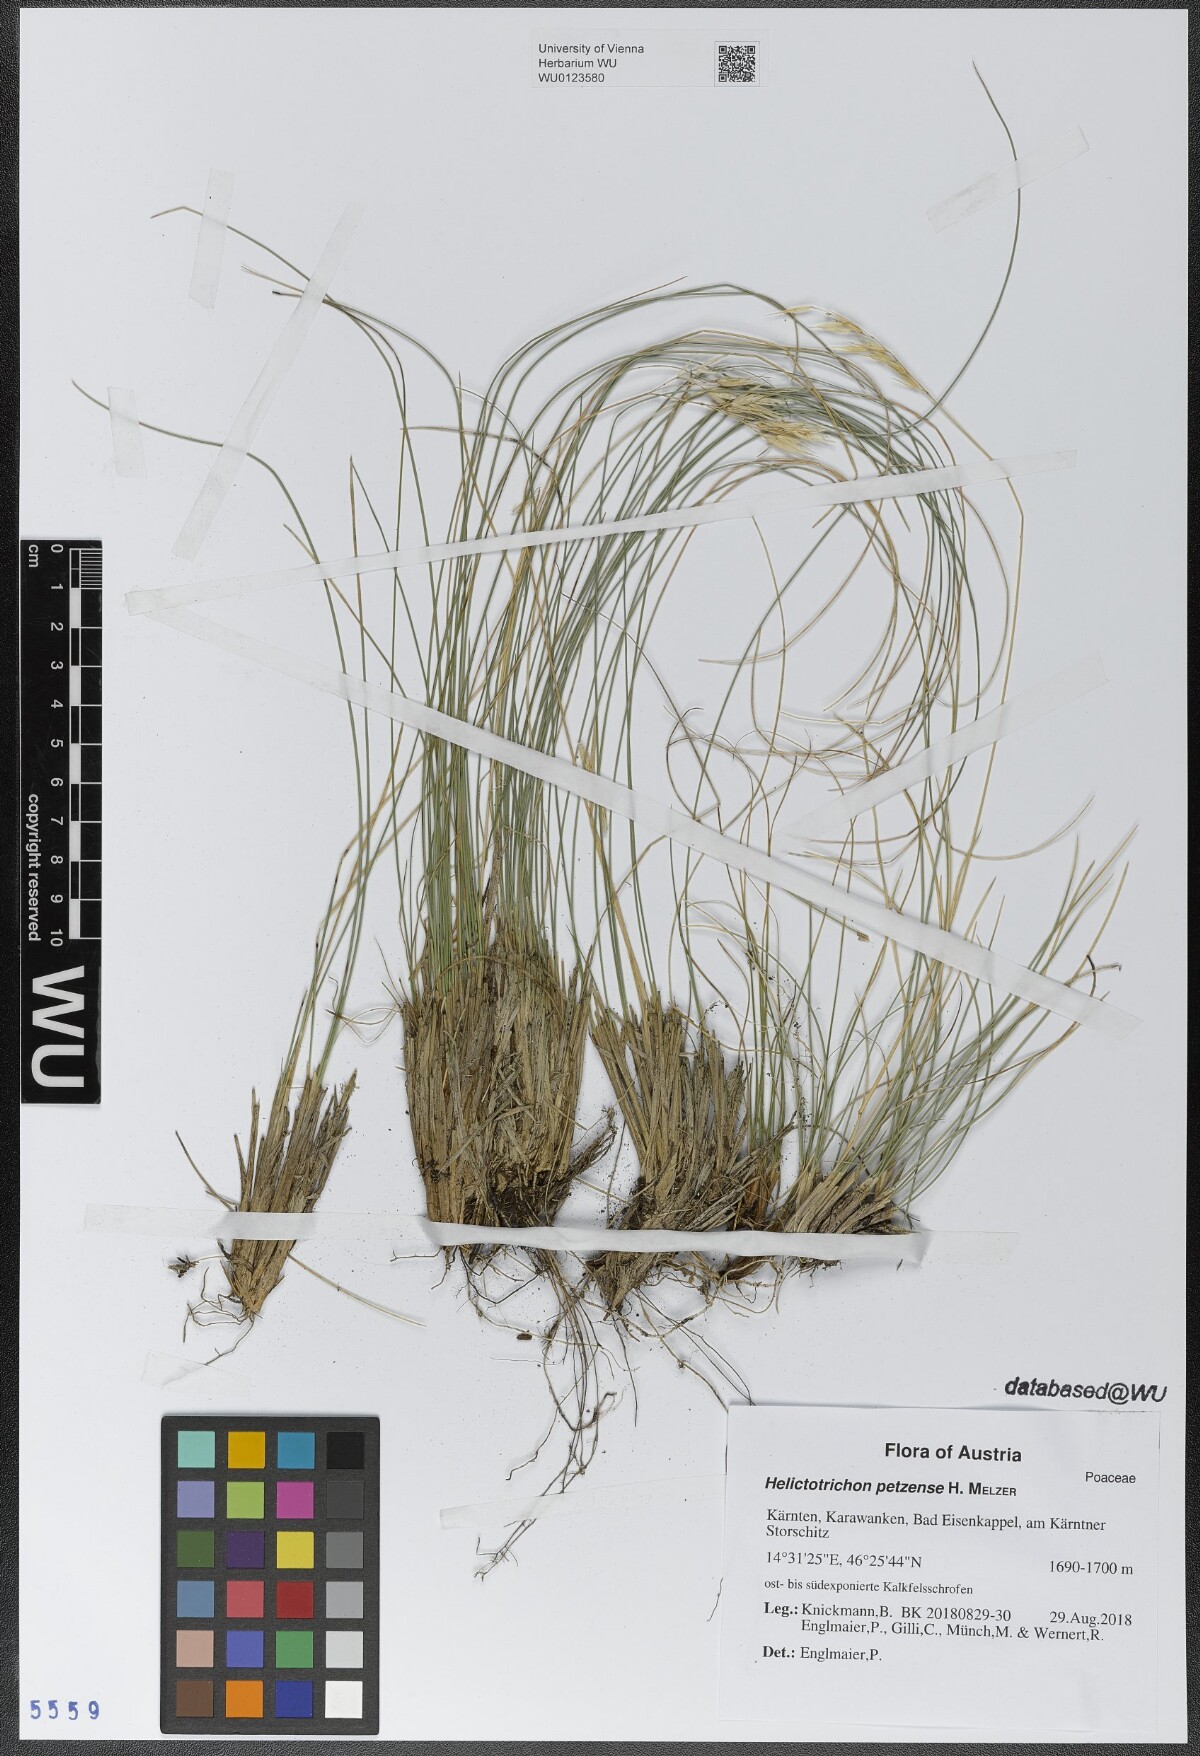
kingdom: Plantae
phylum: Tracheophyta
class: Liliopsida
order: Poales
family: Poaceae
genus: Helictotrichon
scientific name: Helictotrichon petzense
